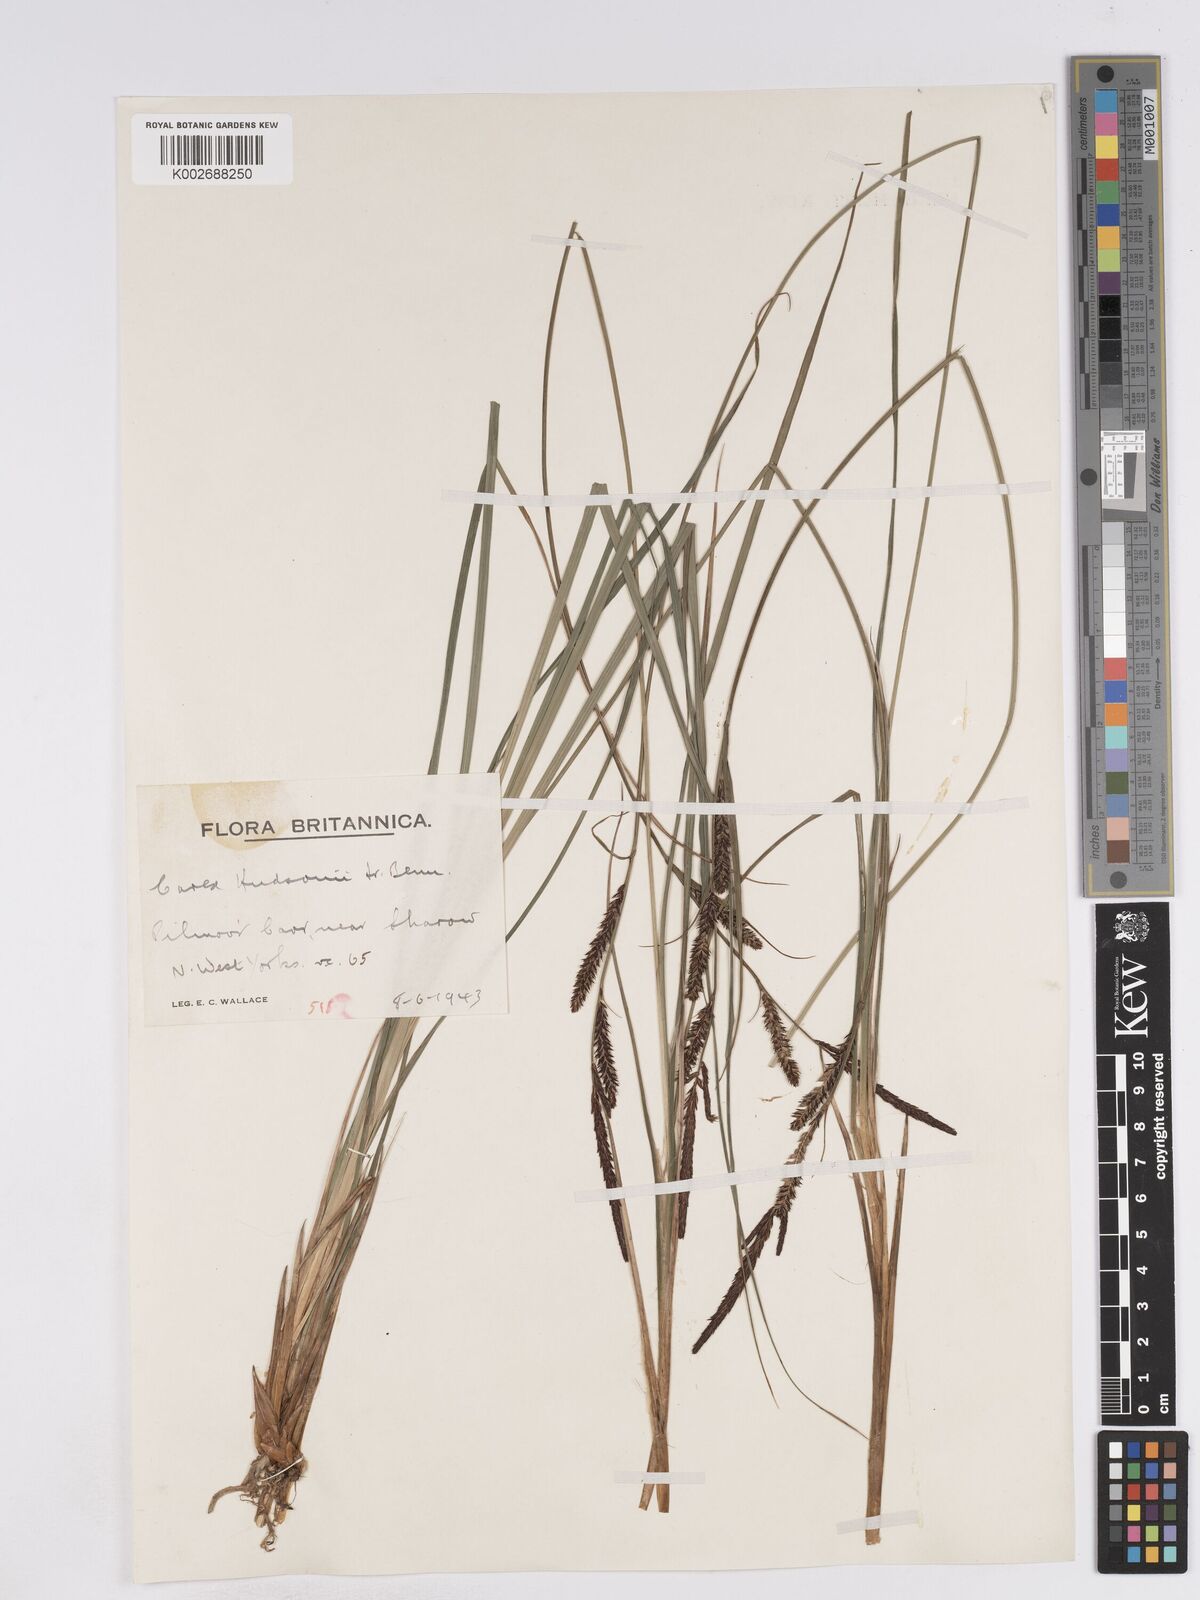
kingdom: Plantae
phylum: Tracheophyta
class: Liliopsida
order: Poales
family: Cyperaceae
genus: Carex
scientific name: Carex elata
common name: Tufted sedge
